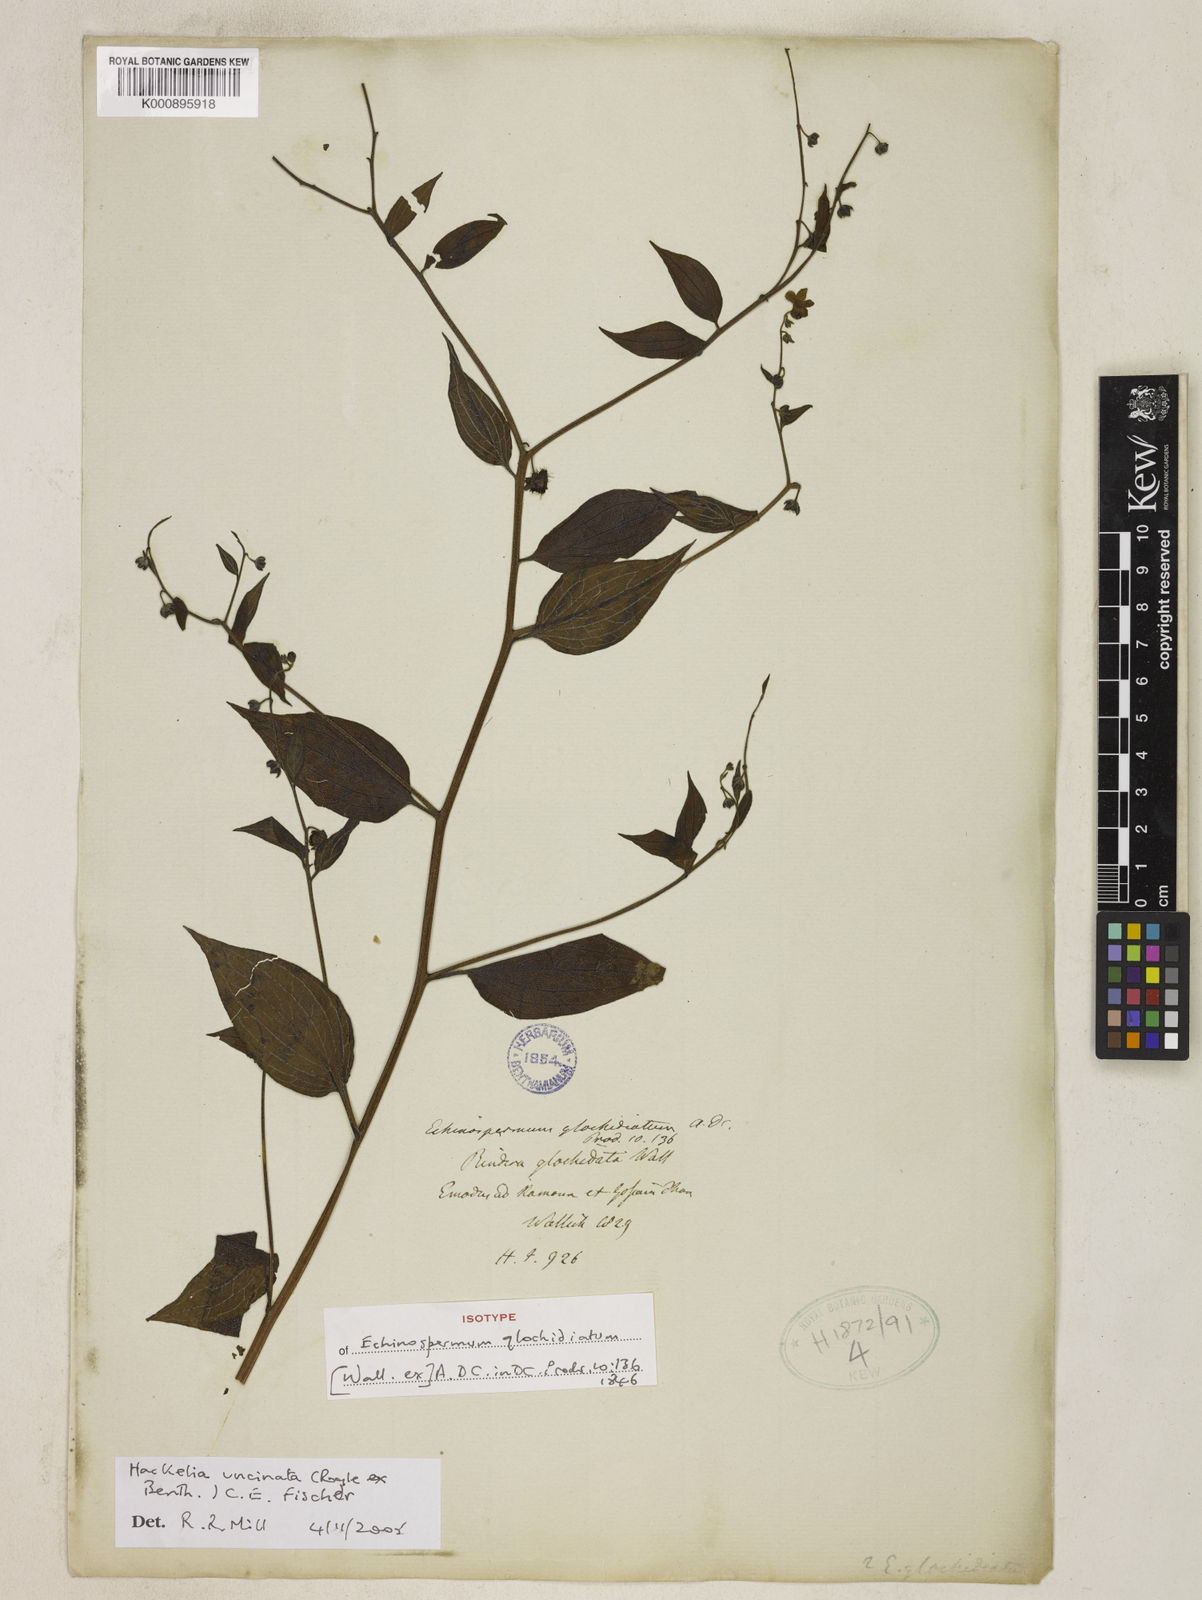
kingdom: Plantae
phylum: Tracheophyta
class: Magnoliopsida
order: Boraginales
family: Boraginaceae
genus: Hackelia
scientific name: Hackelia uncinata
